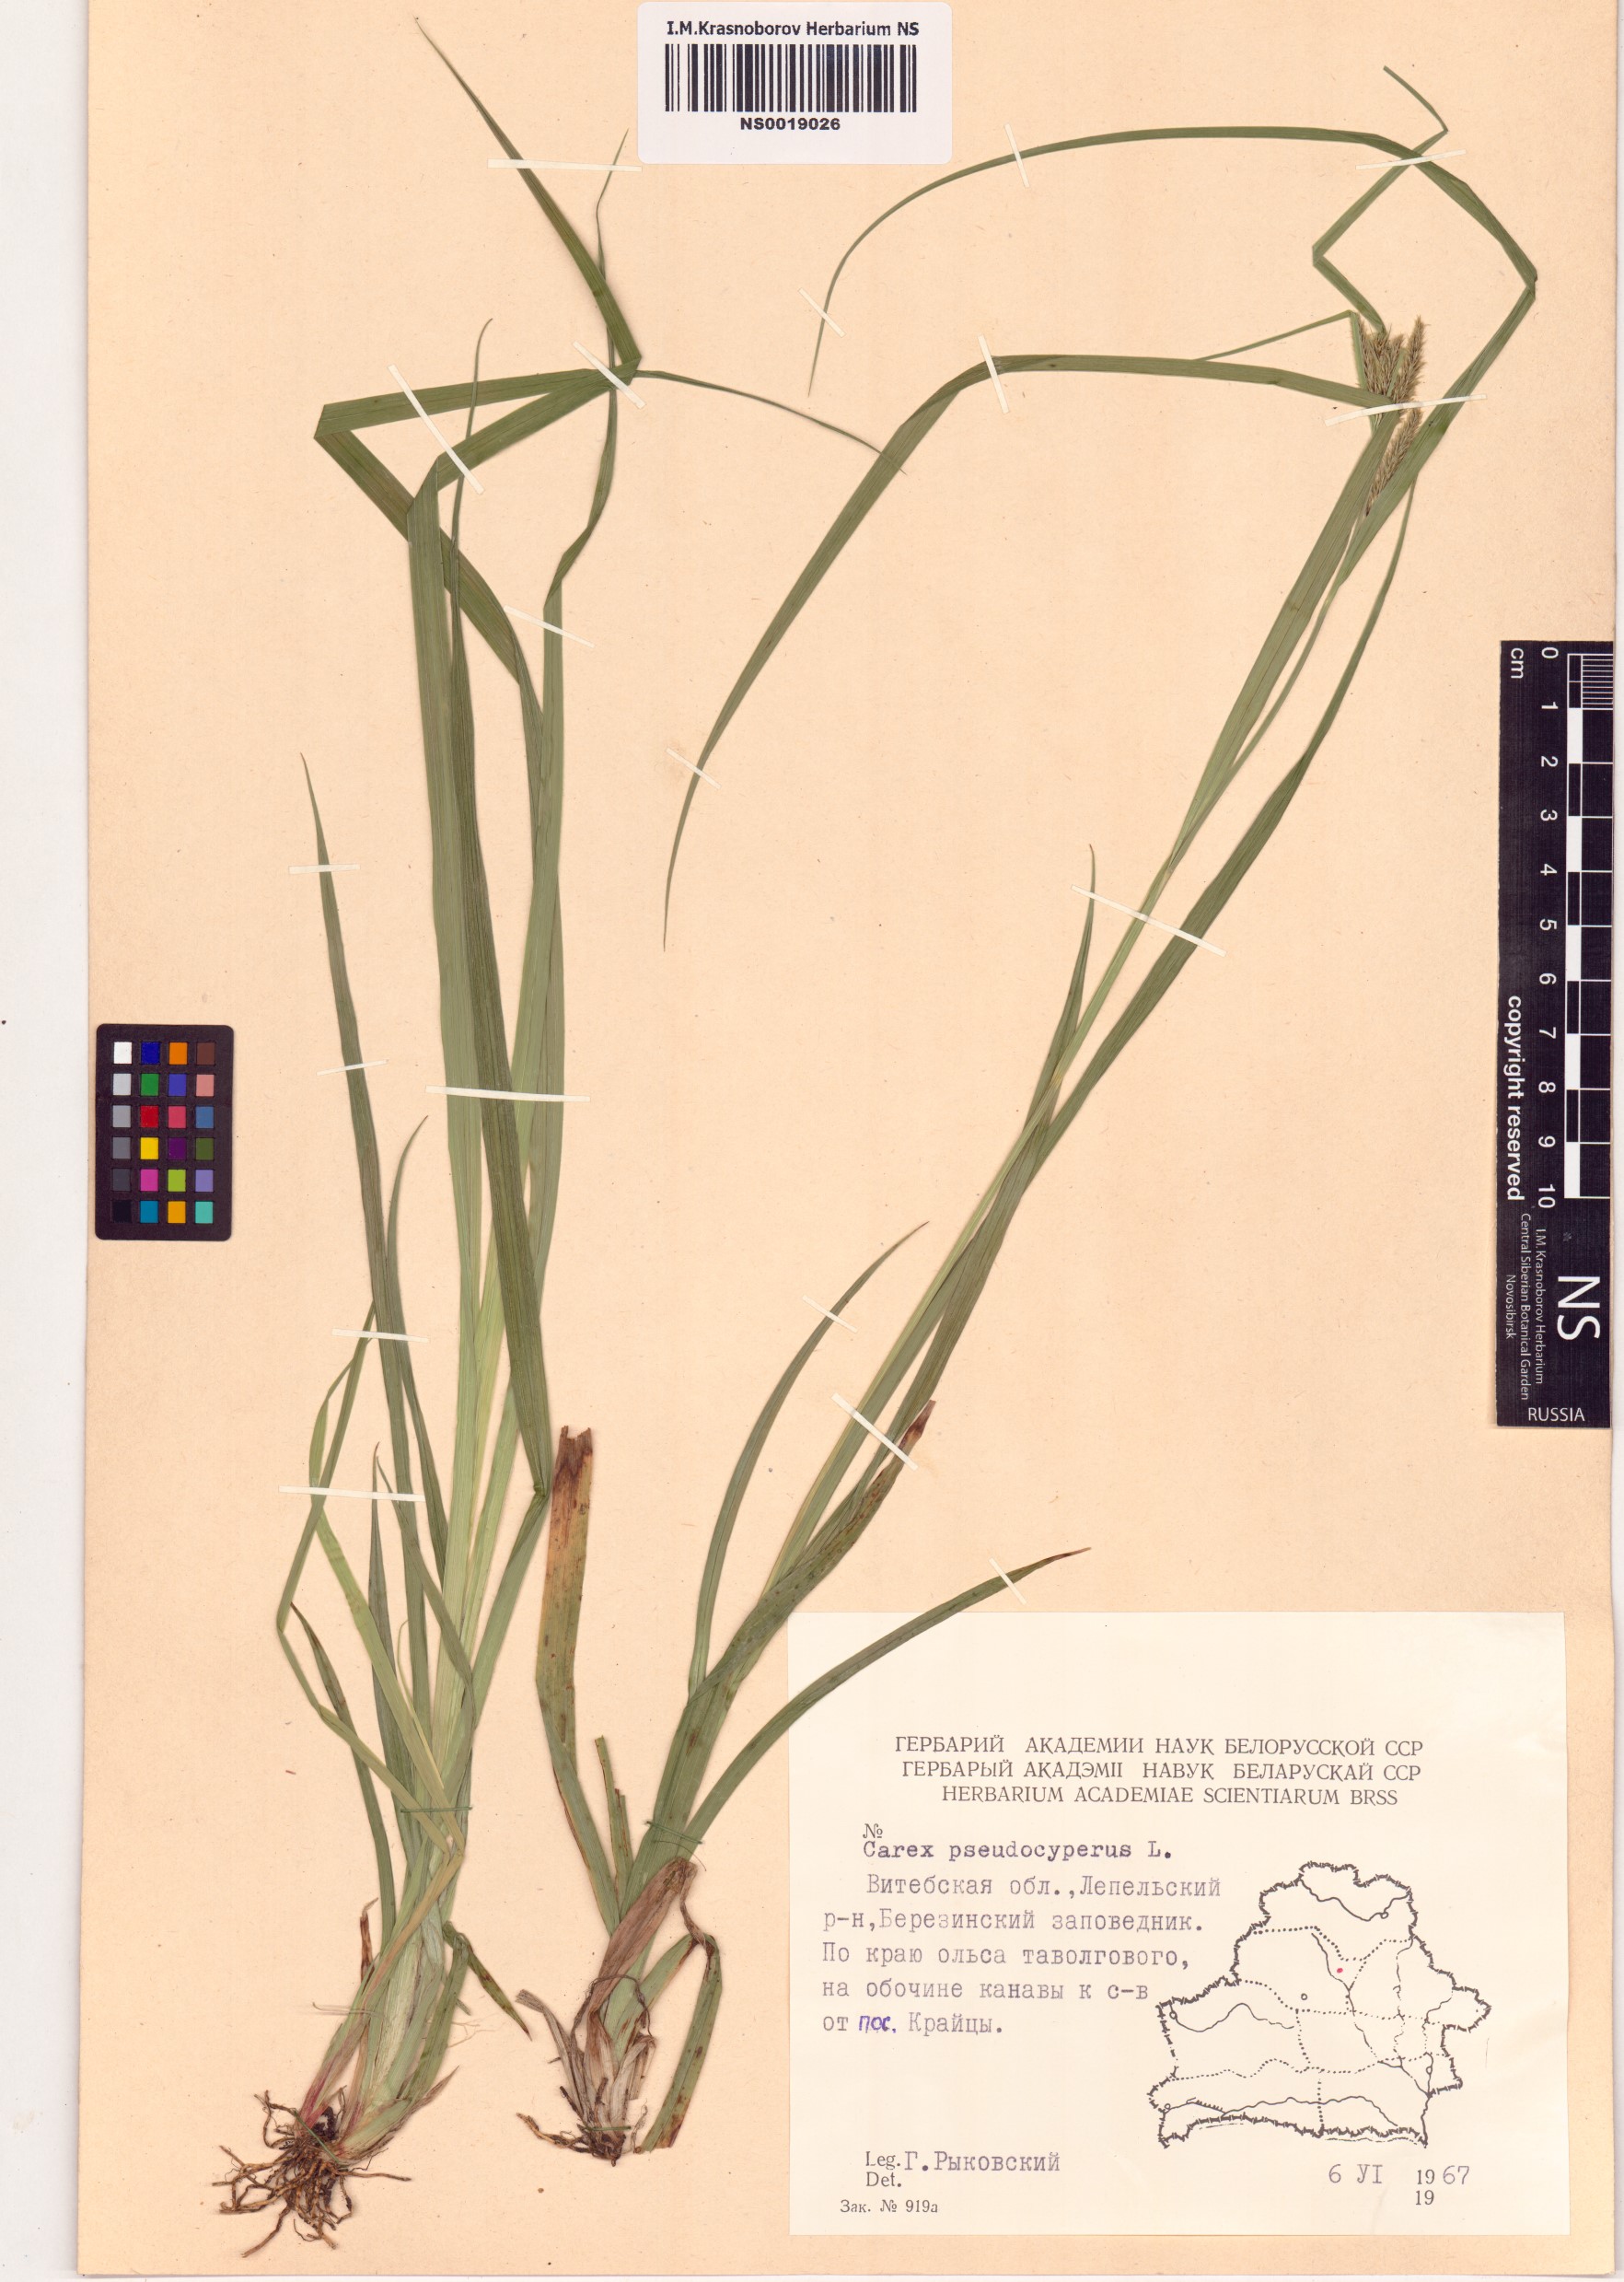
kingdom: Plantae
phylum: Tracheophyta
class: Liliopsida
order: Poales
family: Cyperaceae
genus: Carex
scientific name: Carex pseudocyperus
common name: Cyperus sedge
